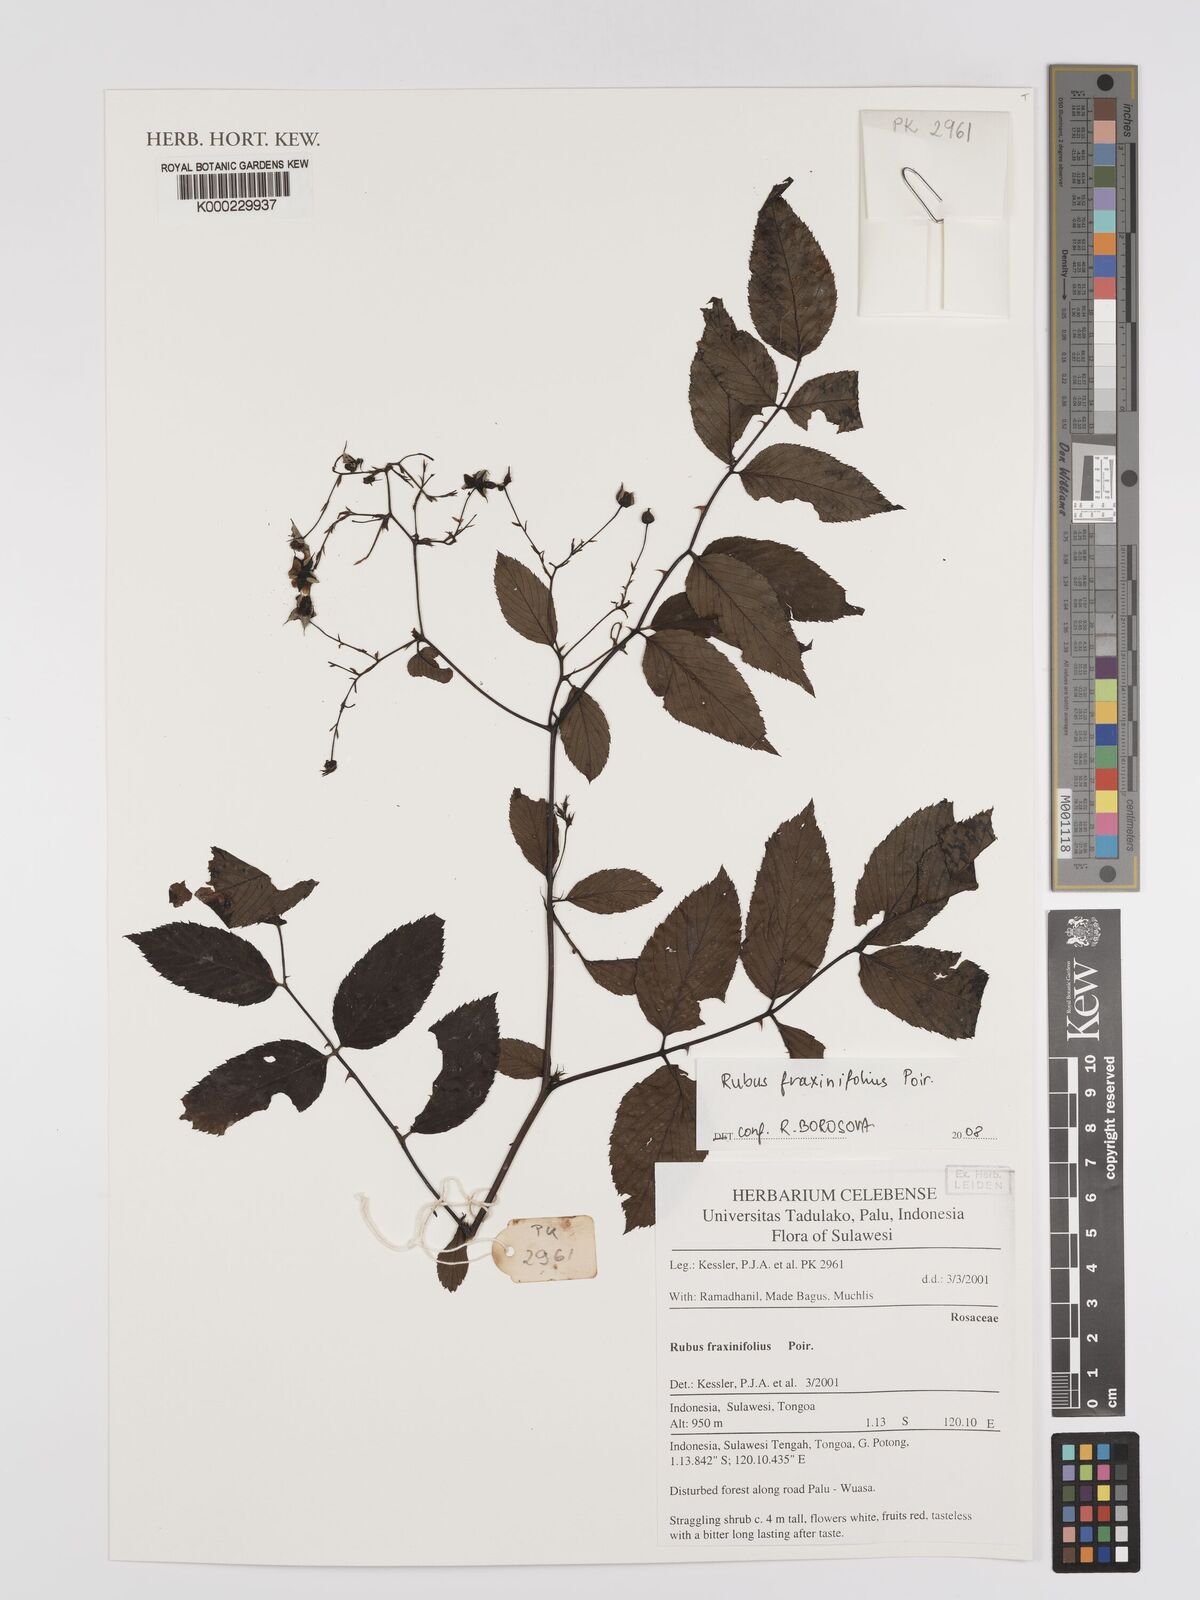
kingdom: Plantae
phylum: Tracheophyta
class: Magnoliopsida
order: Rosales
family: Rosaceae
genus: Rubus
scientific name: Rubus fraxinifolius
